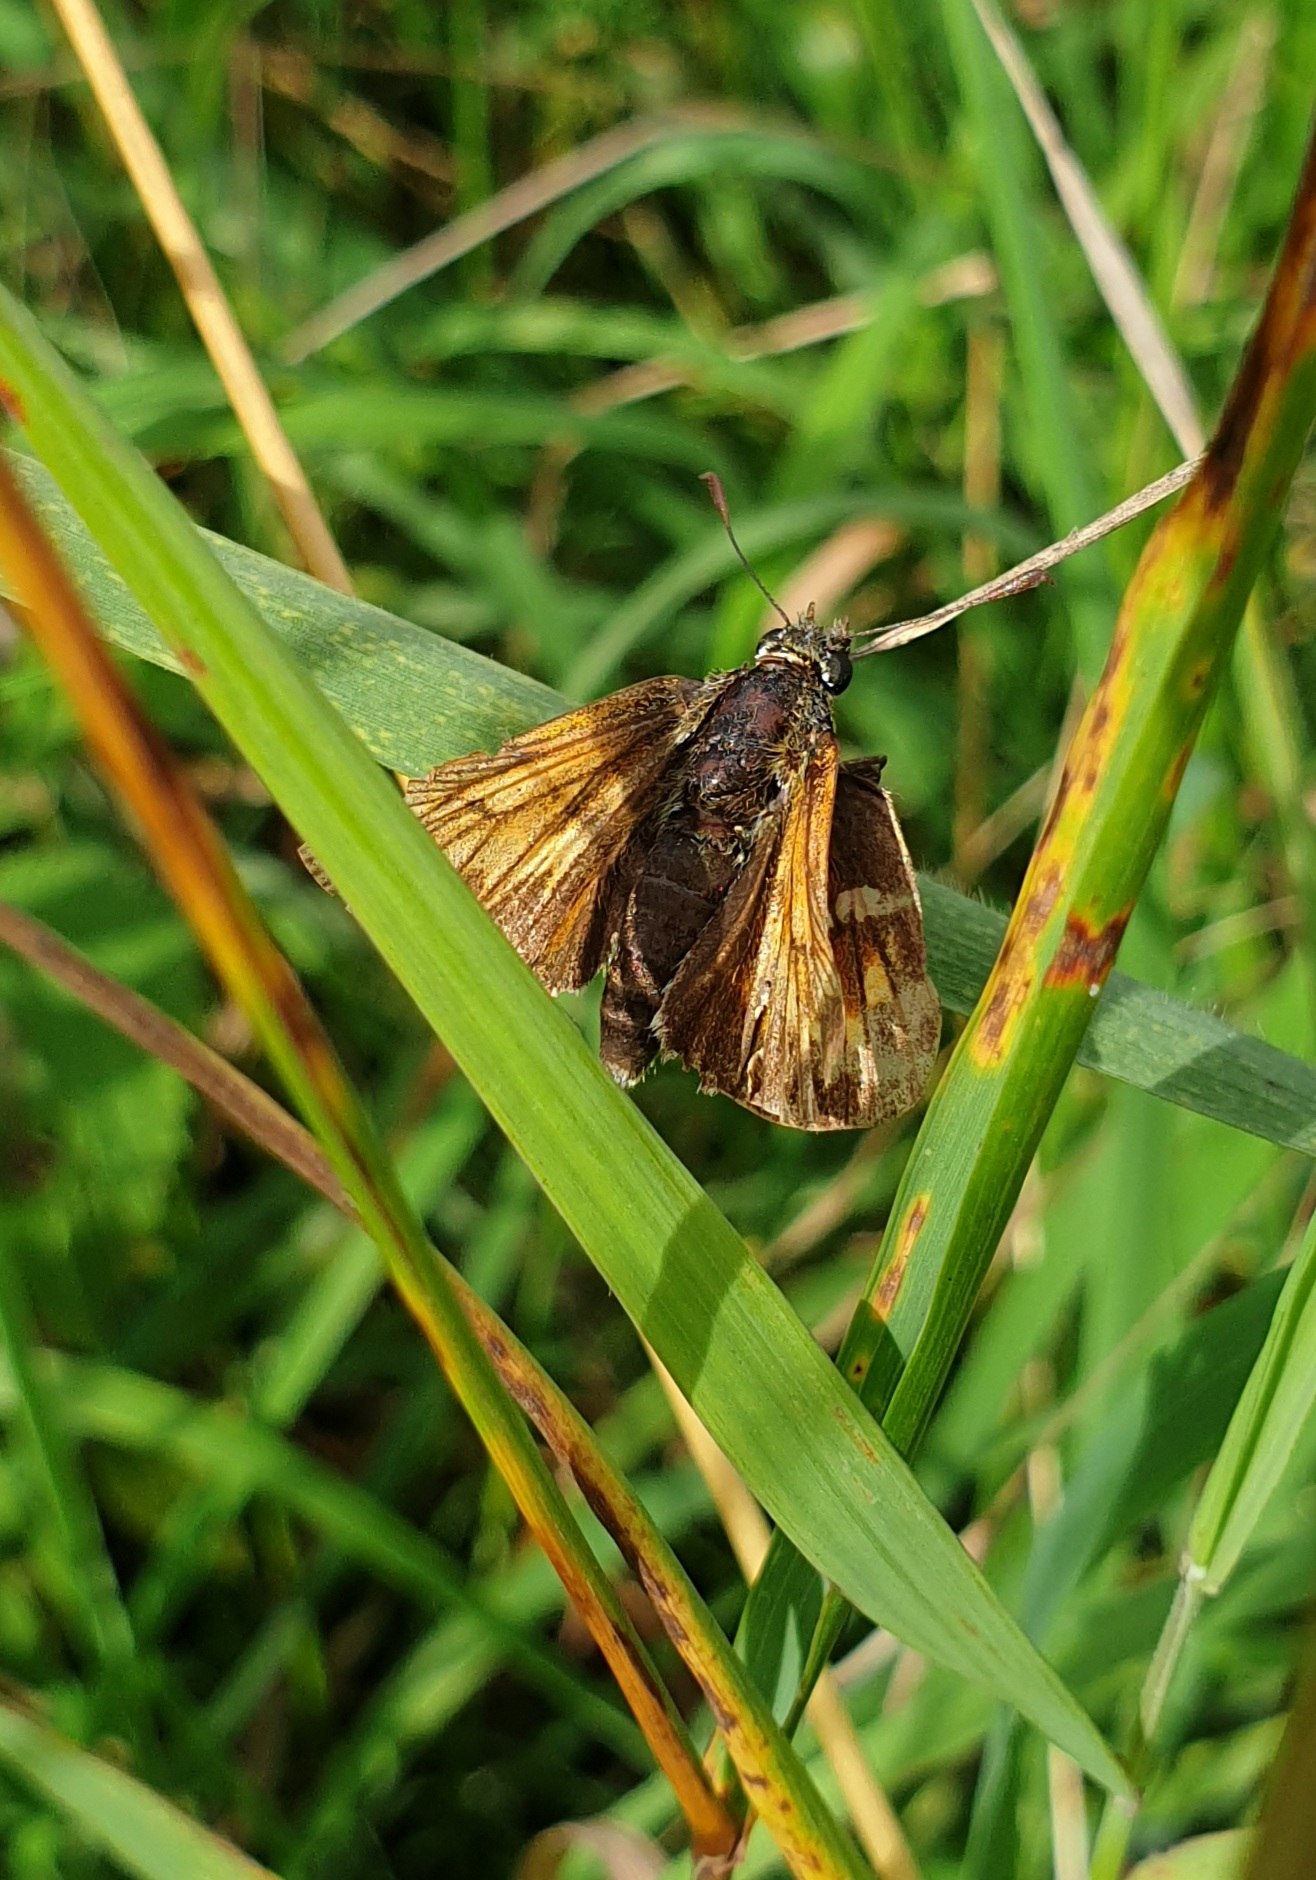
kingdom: Animalia
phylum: Arthropoda
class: Insecta
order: Lepidoptera
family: Hesperiidae
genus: Ochlodes
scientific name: Ochlodes venata
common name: Stor bredpande
